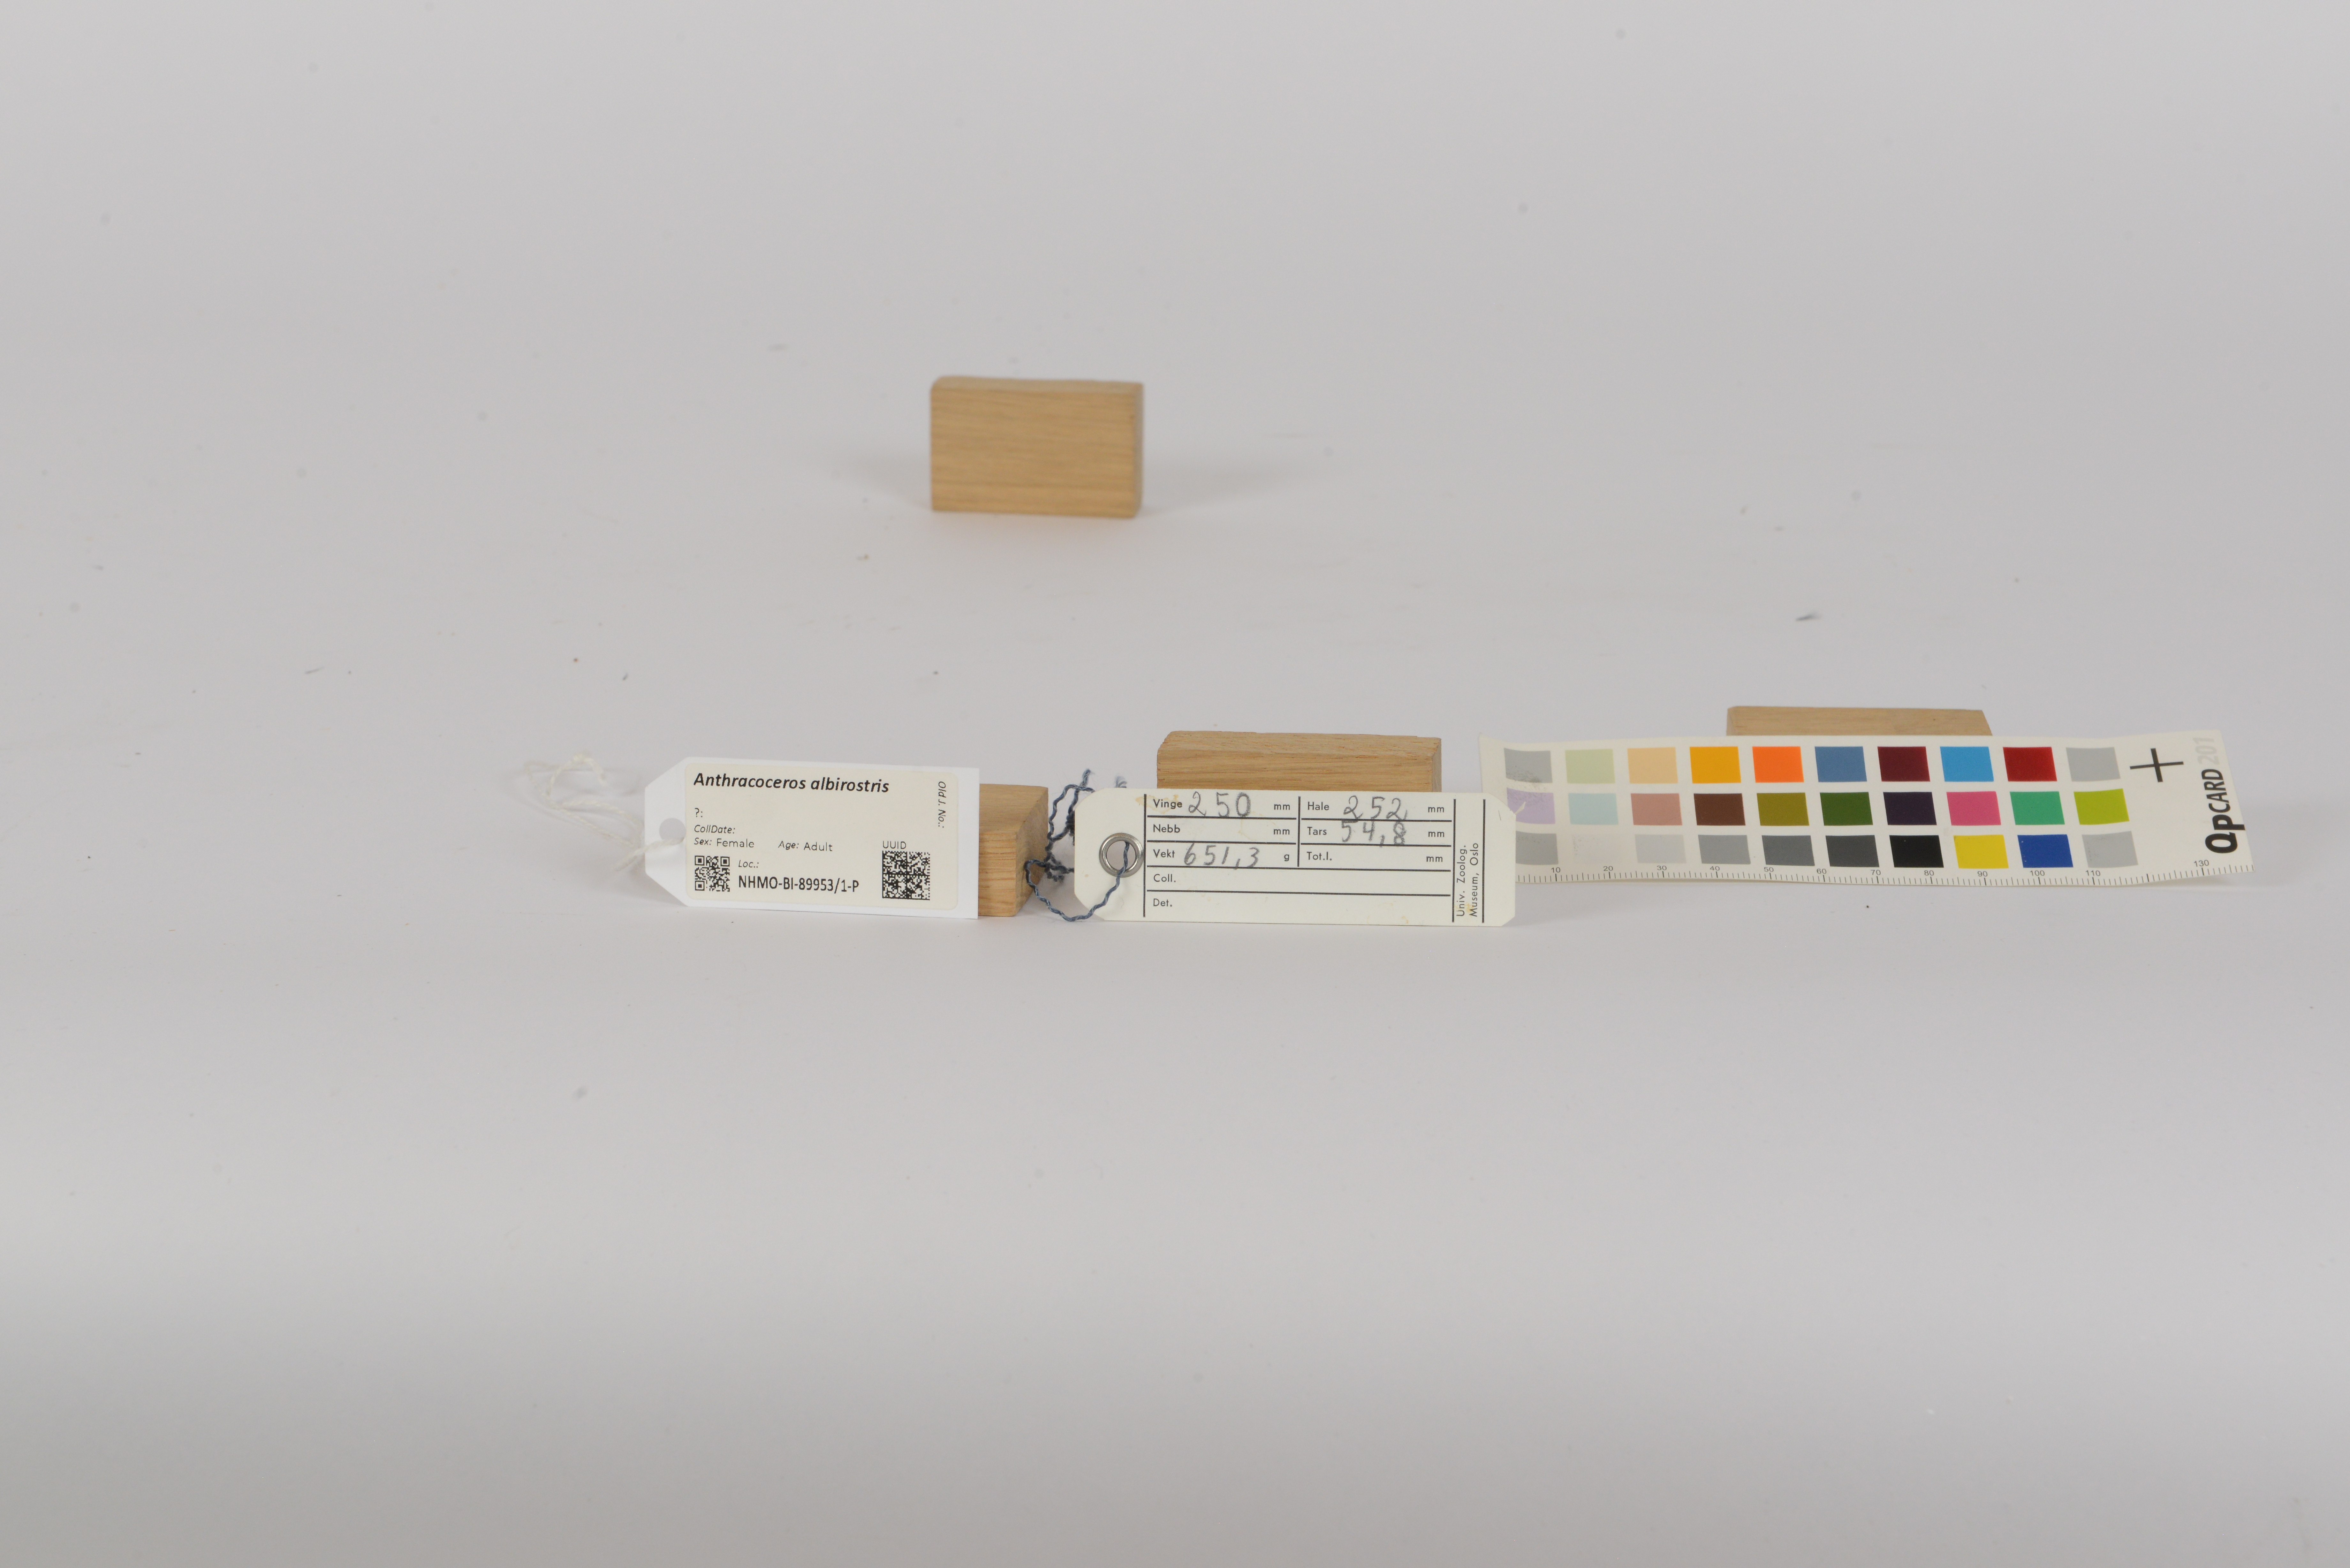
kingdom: Animalia
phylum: Chordata
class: Aves
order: Bucerotiformes
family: Bucerotidae
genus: Anthracoceros
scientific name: Anthracoceros albirostris
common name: Oriental pied-hornbill
